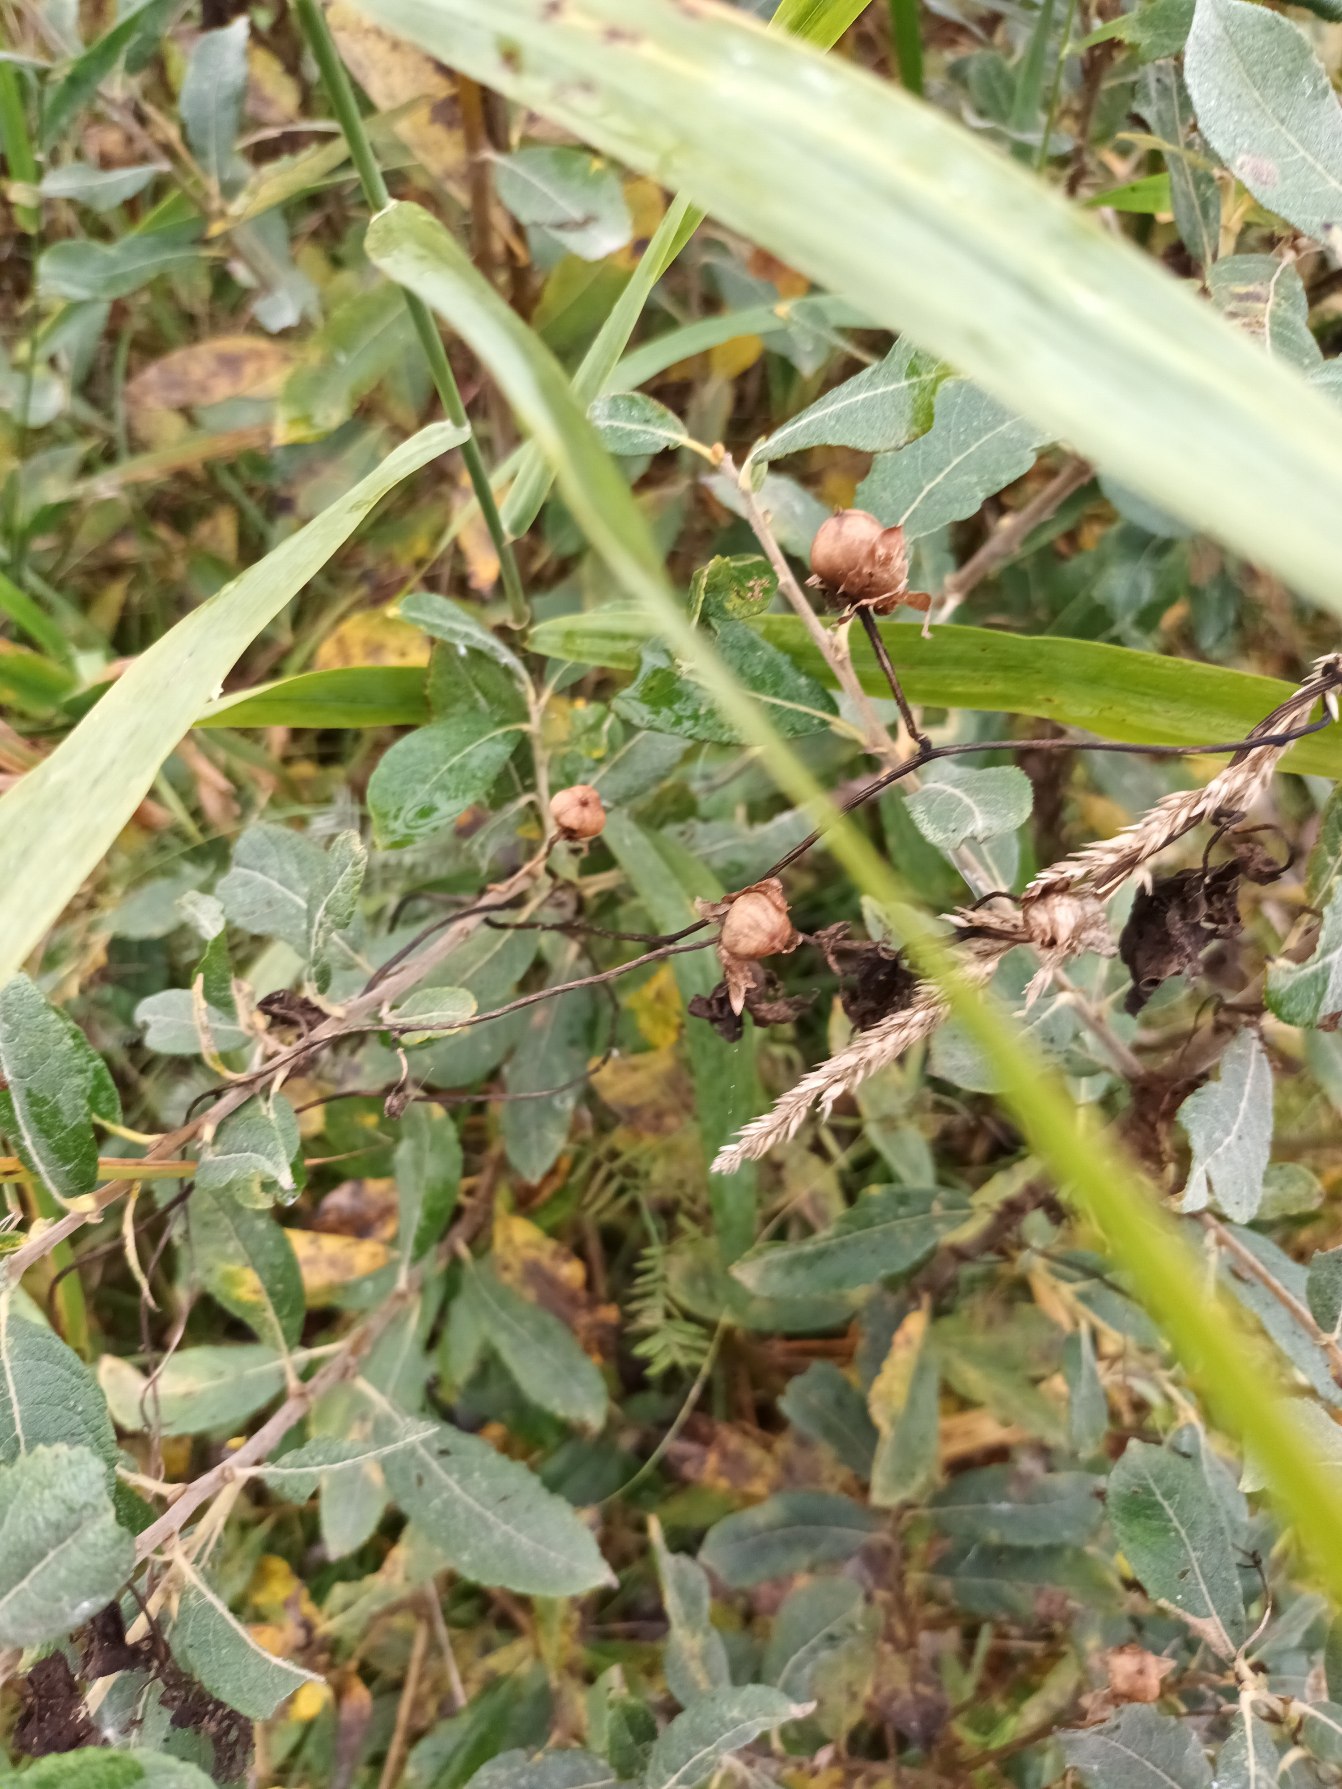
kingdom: Plantae
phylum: Tracheophyta
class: Magnoliopsida
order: Solanales
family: Convolvulaceae
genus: Calystegia
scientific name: Calystegia sepium
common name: Gærde-snerle
